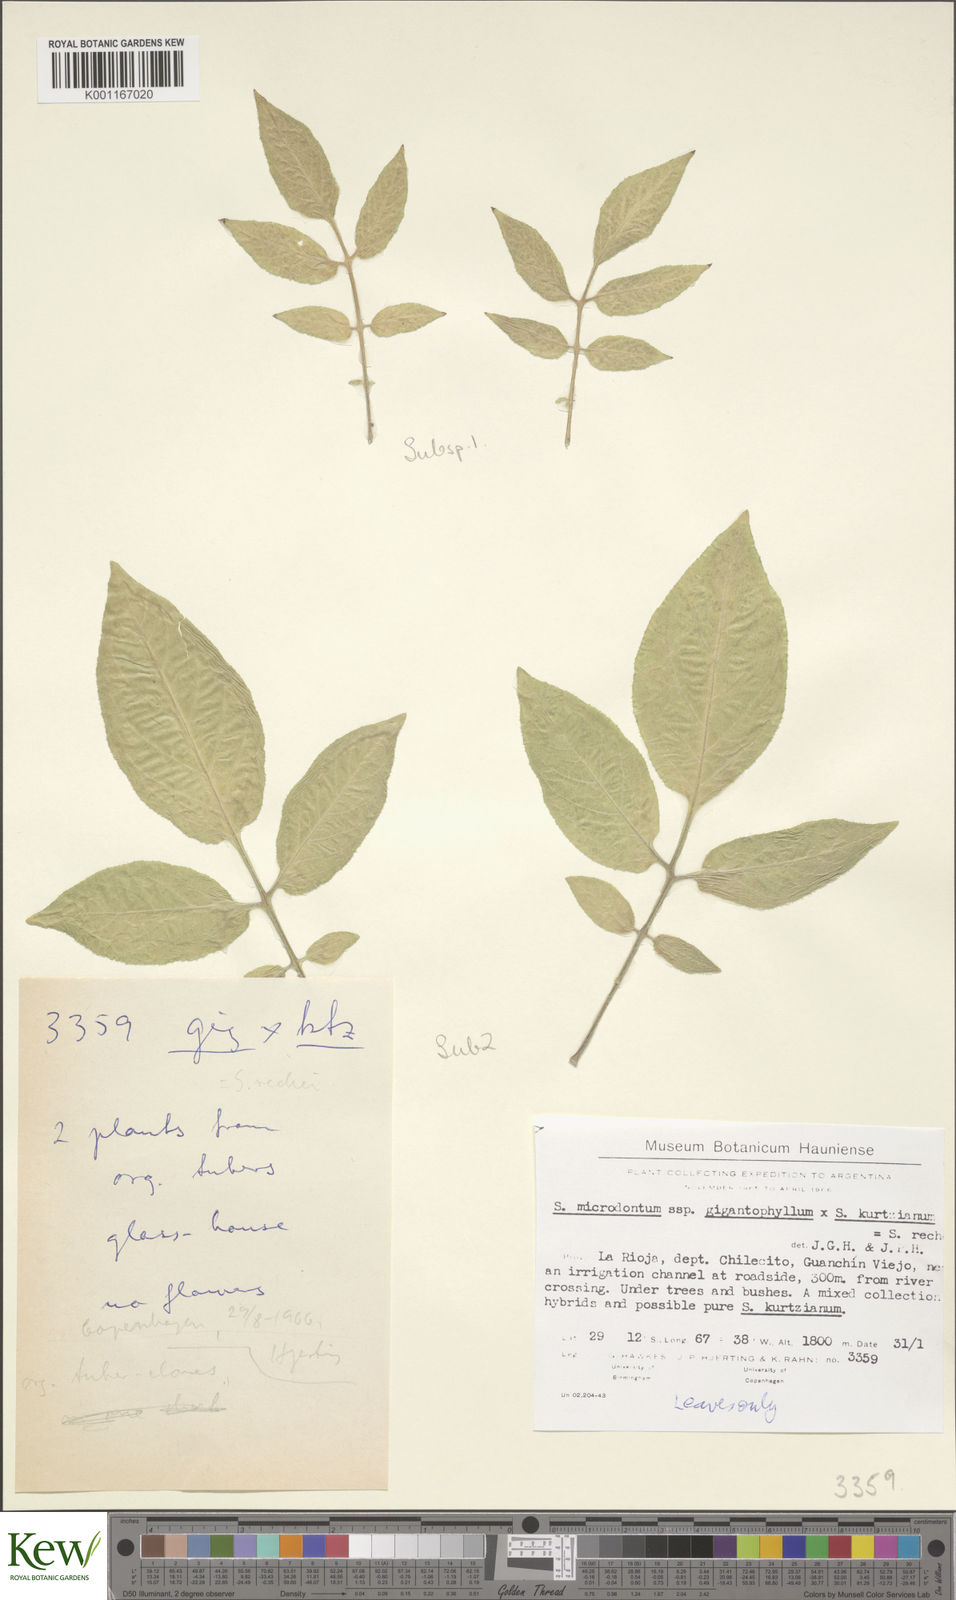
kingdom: Plantae
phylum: Tracheophyta
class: Magnoliopsida
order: Solanales
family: Solanaceae
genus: Solanum
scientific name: Solanum rechei
